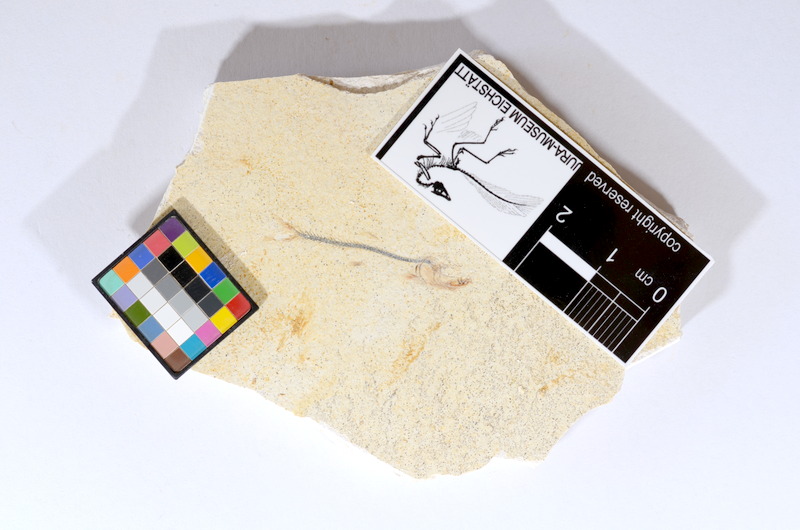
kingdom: Animalia
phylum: Chordata
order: Salmoniformes
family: Orthogonikleithridae
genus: Orthogonikleithrus
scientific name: Orthogonikleithrus hoelli
